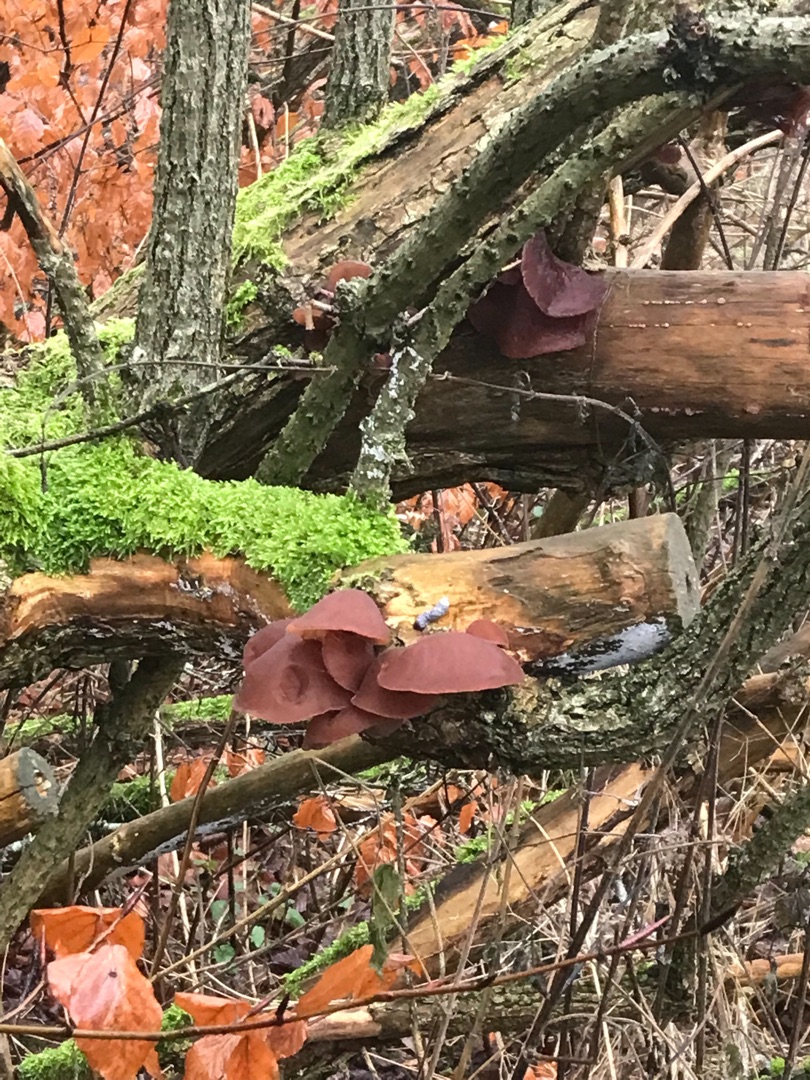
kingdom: Fungi
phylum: Basidiomycota
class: Agaricomycetes
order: Auriculariales
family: Auriculariaceae
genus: Auricularia
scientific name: Auricularia
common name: Judasøre
